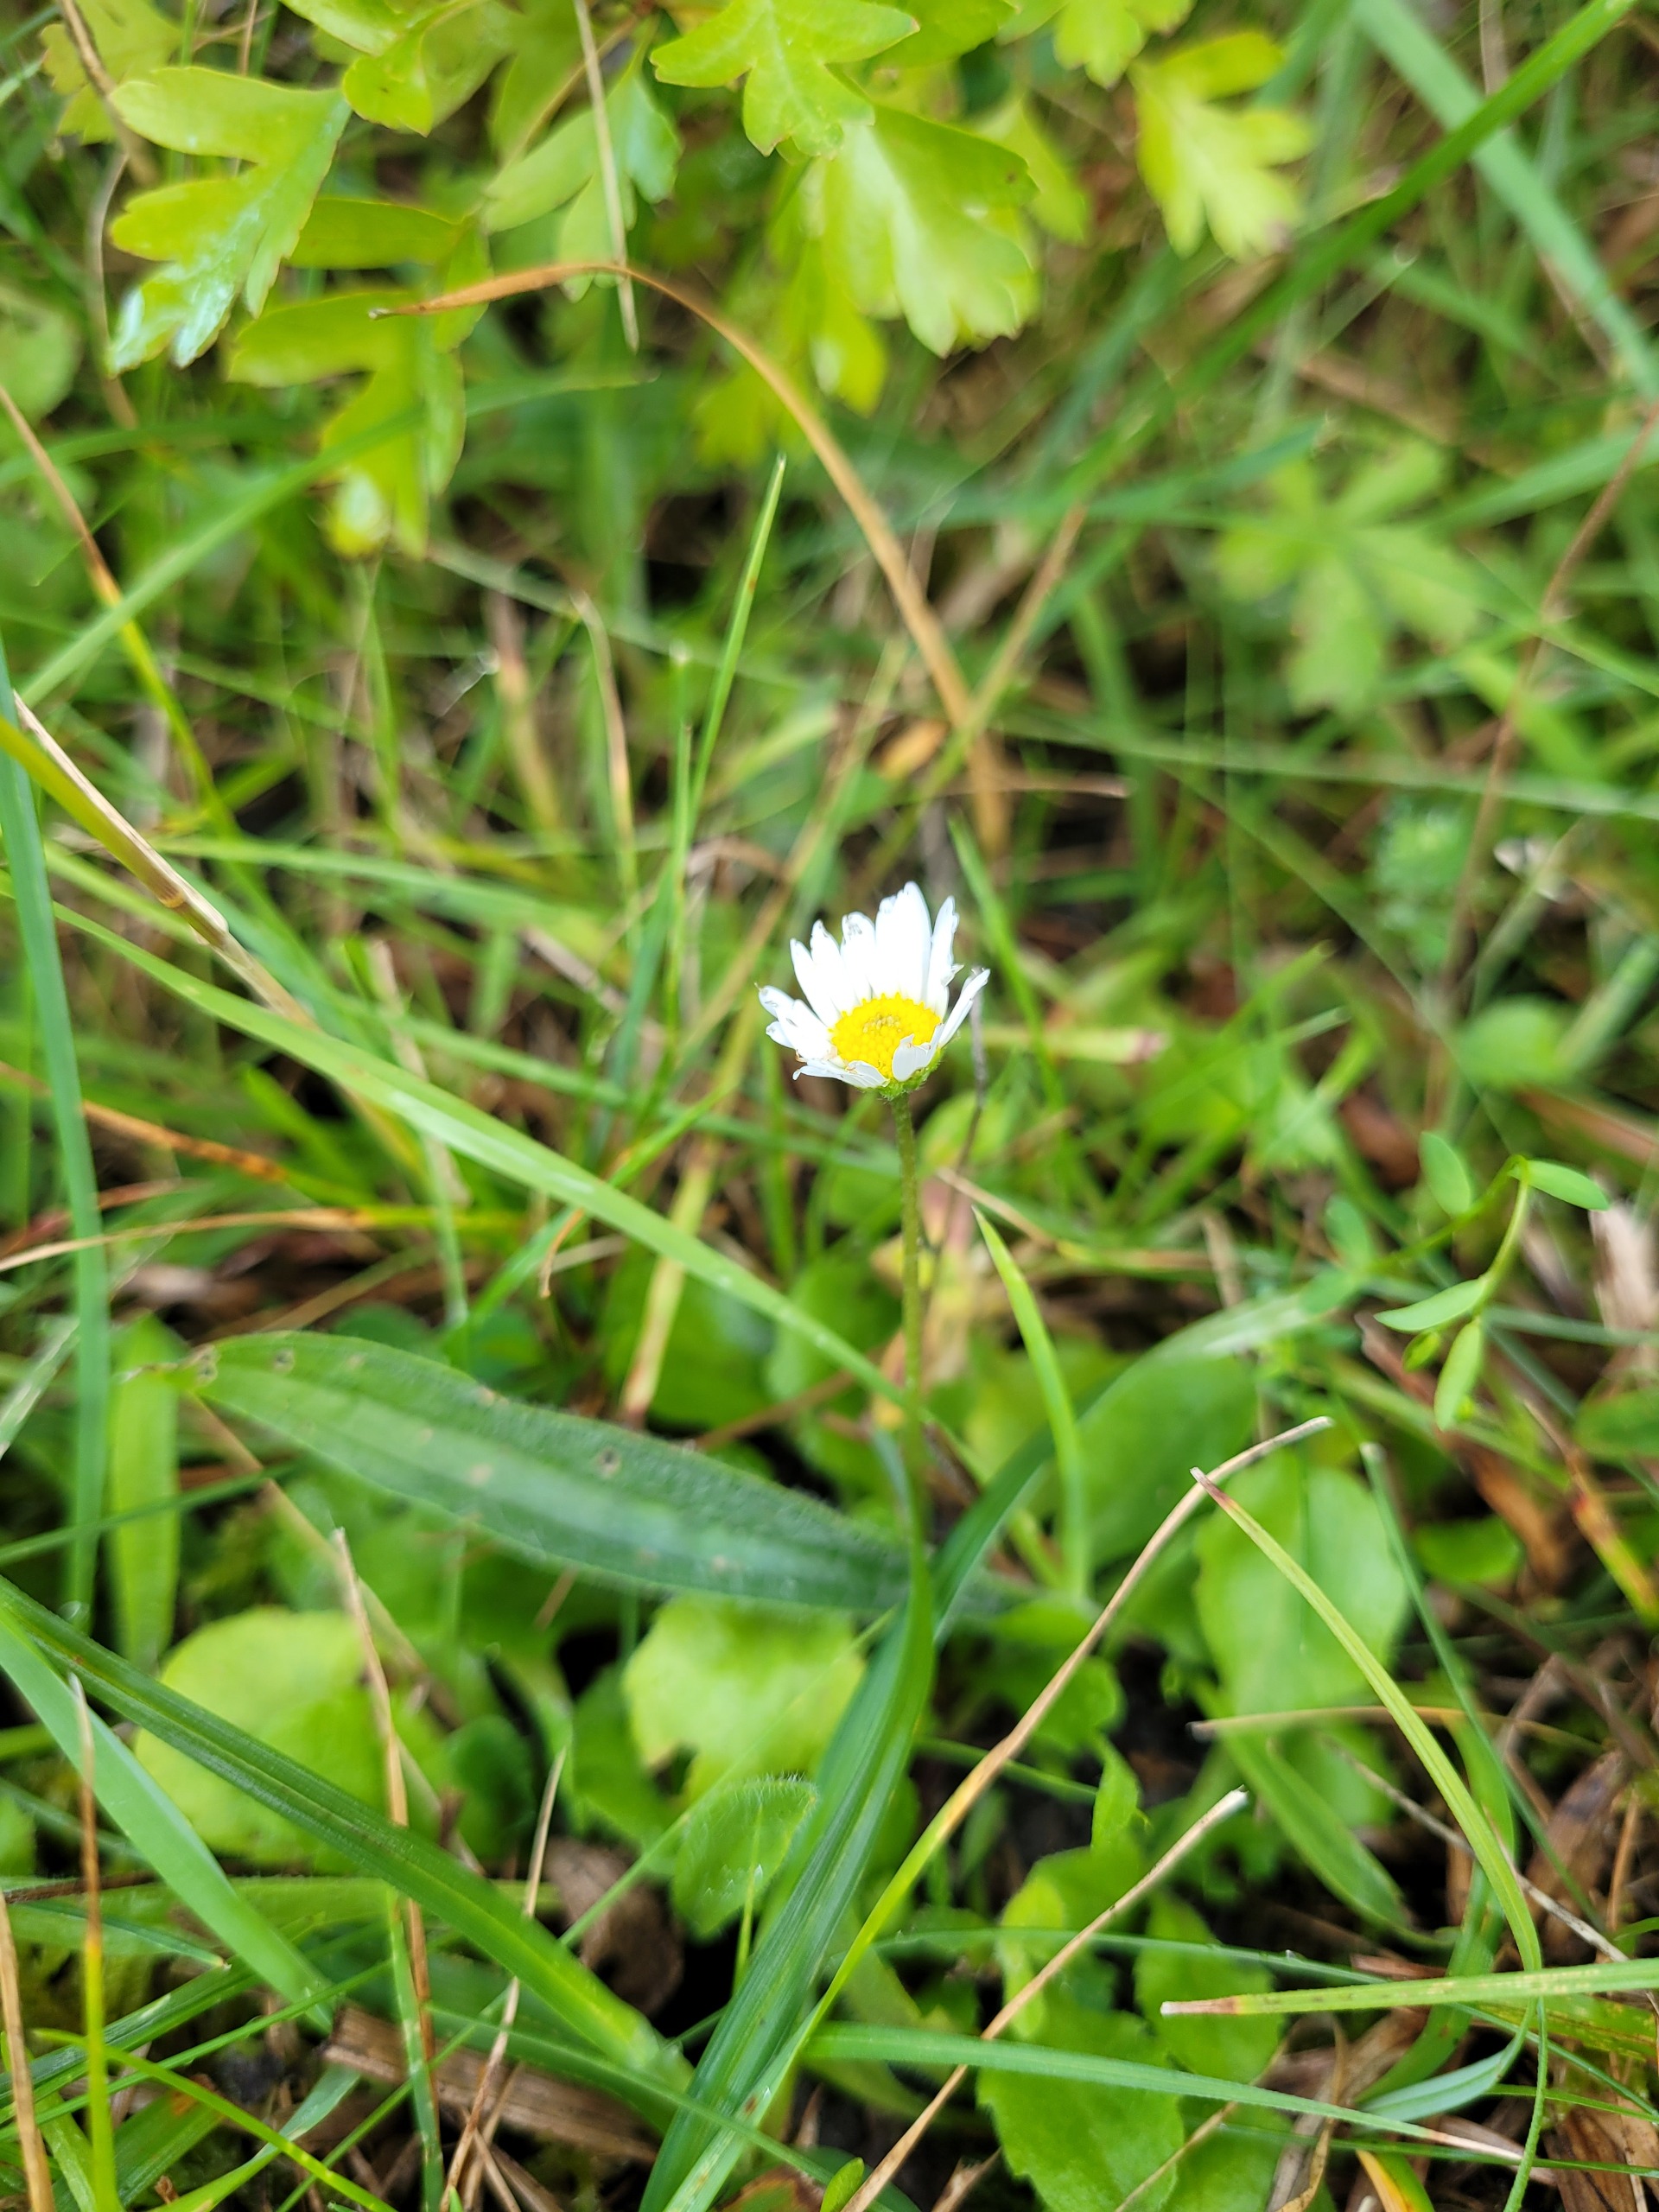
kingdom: Plantae
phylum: Tracheophyta
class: Magnoliopsida
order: Asterales
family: Asteraceae
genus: Bellis
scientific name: Bellis perennis
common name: Tusindfryd
